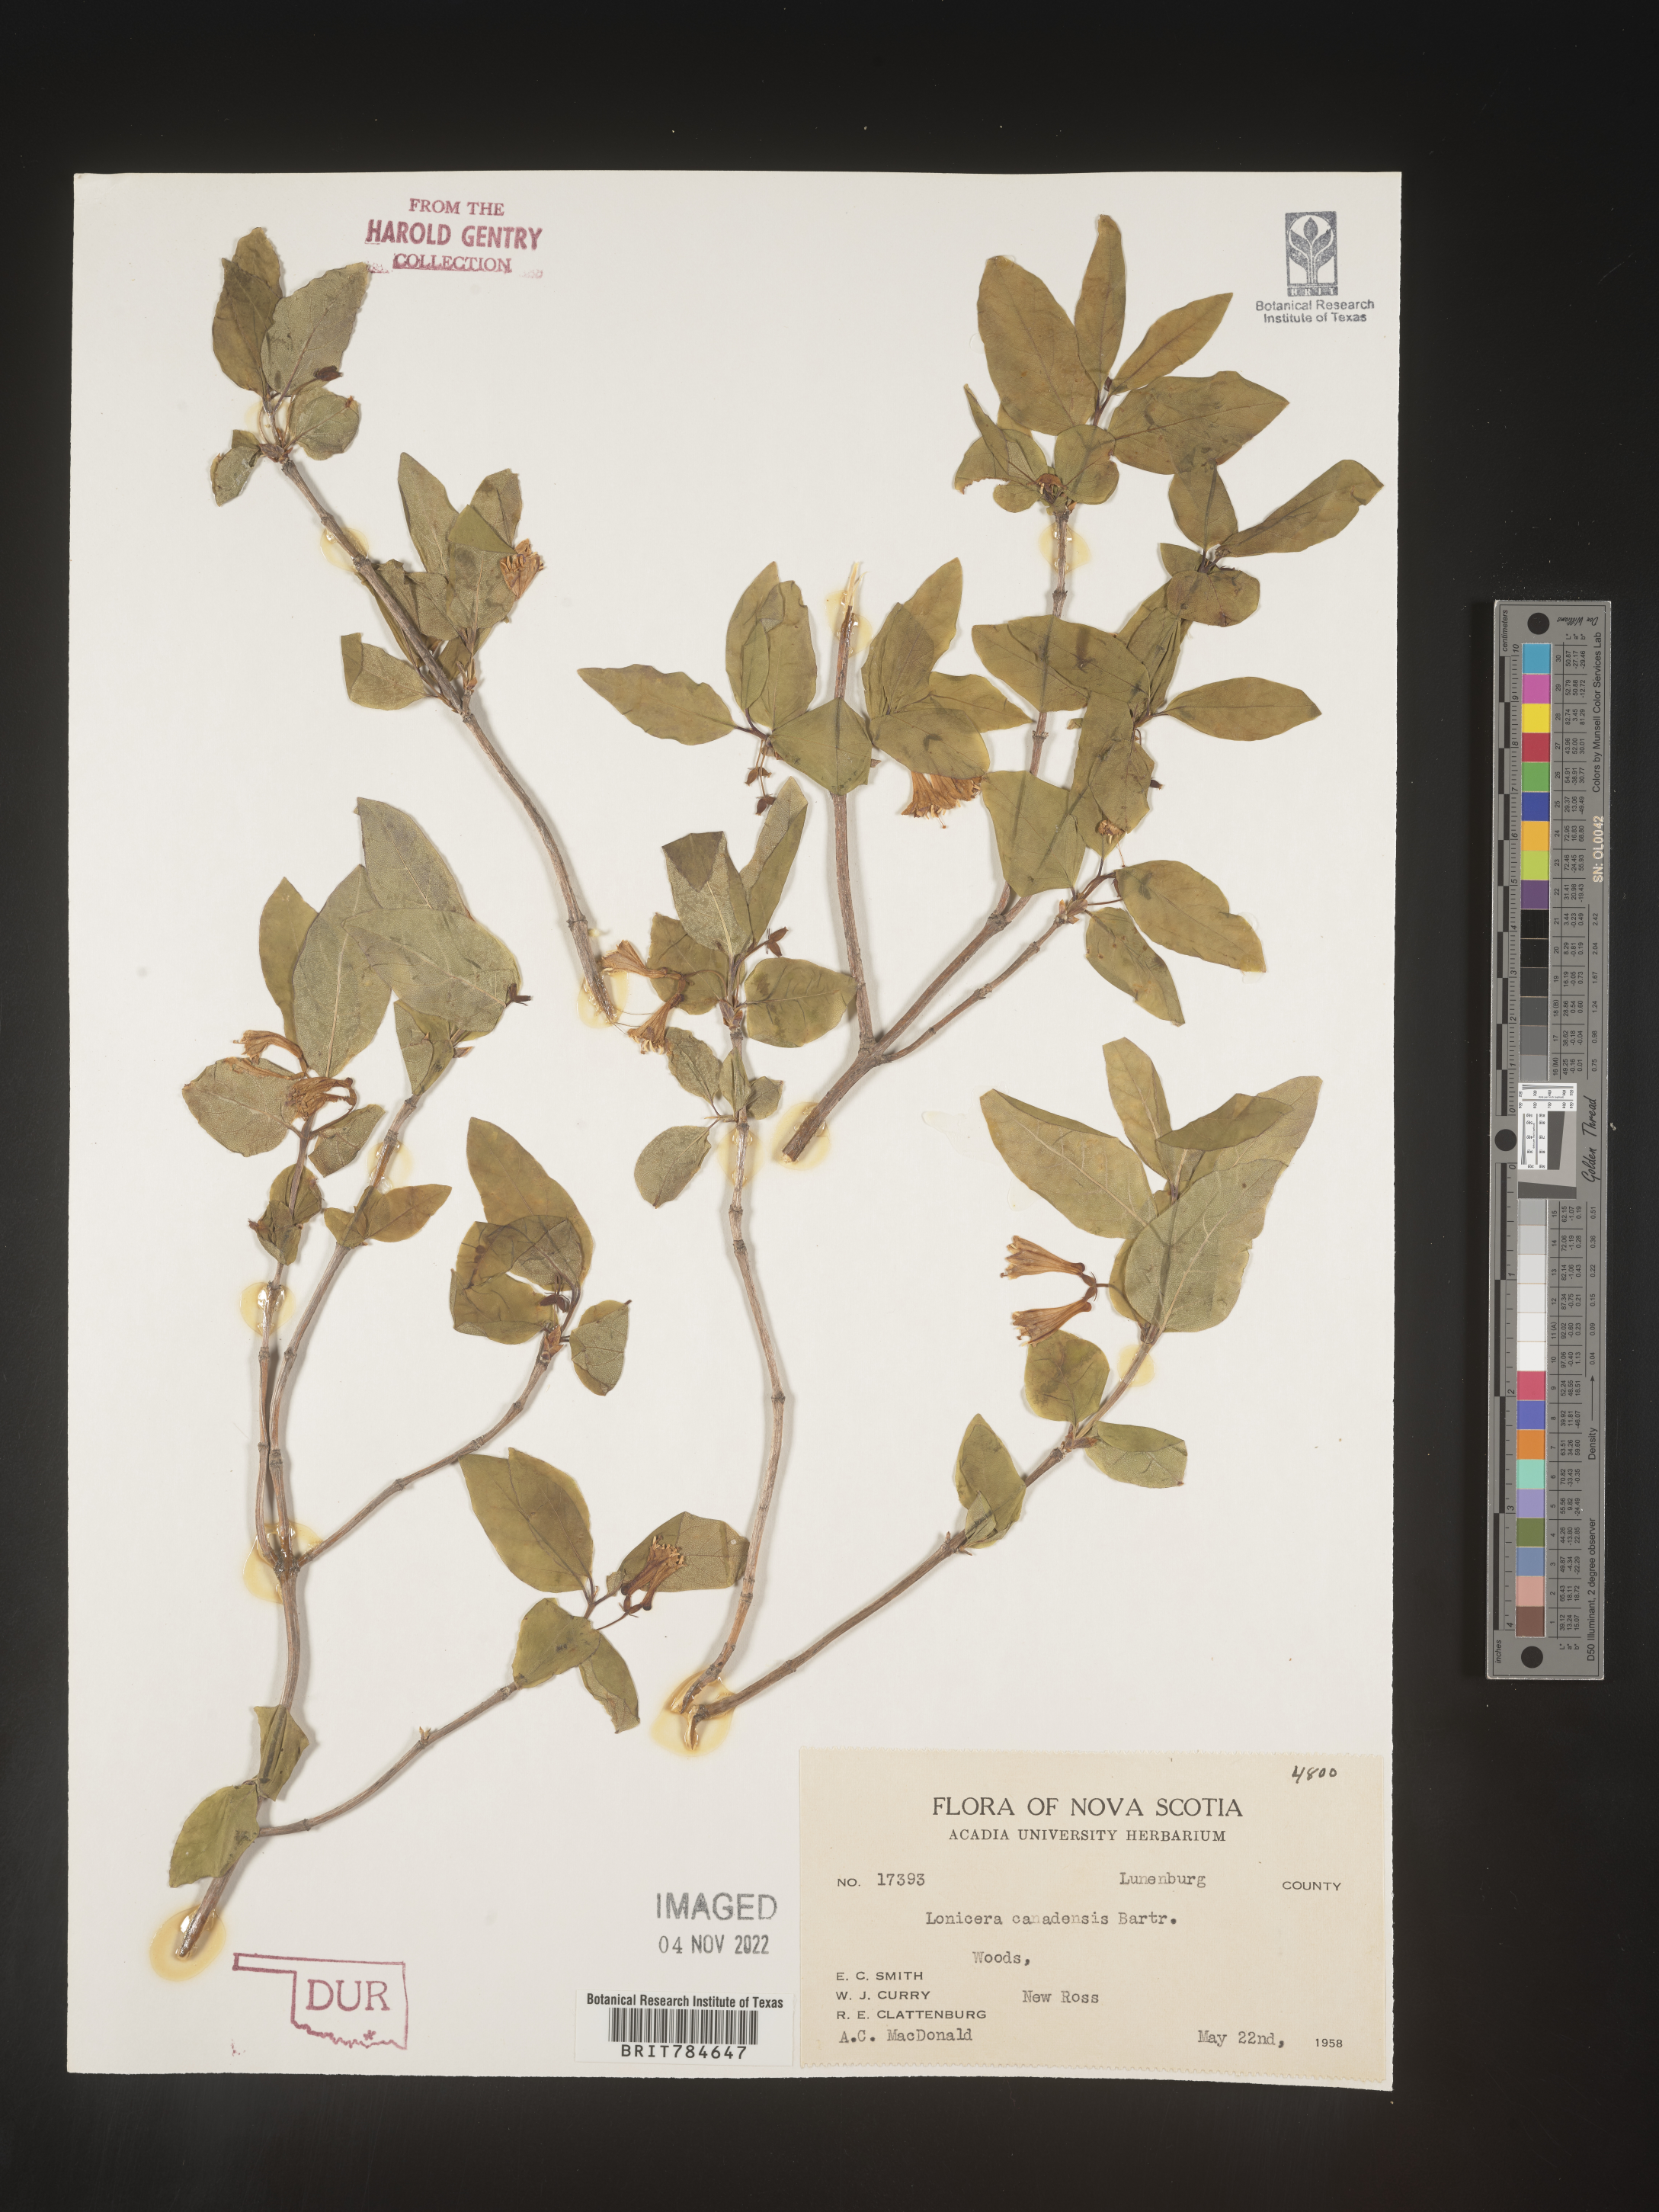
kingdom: Plantae
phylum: Tracheophyta
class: Magnoliopsida
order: Dipsacales
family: Caprifoliaceae
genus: Lonicera
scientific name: Lonicera
